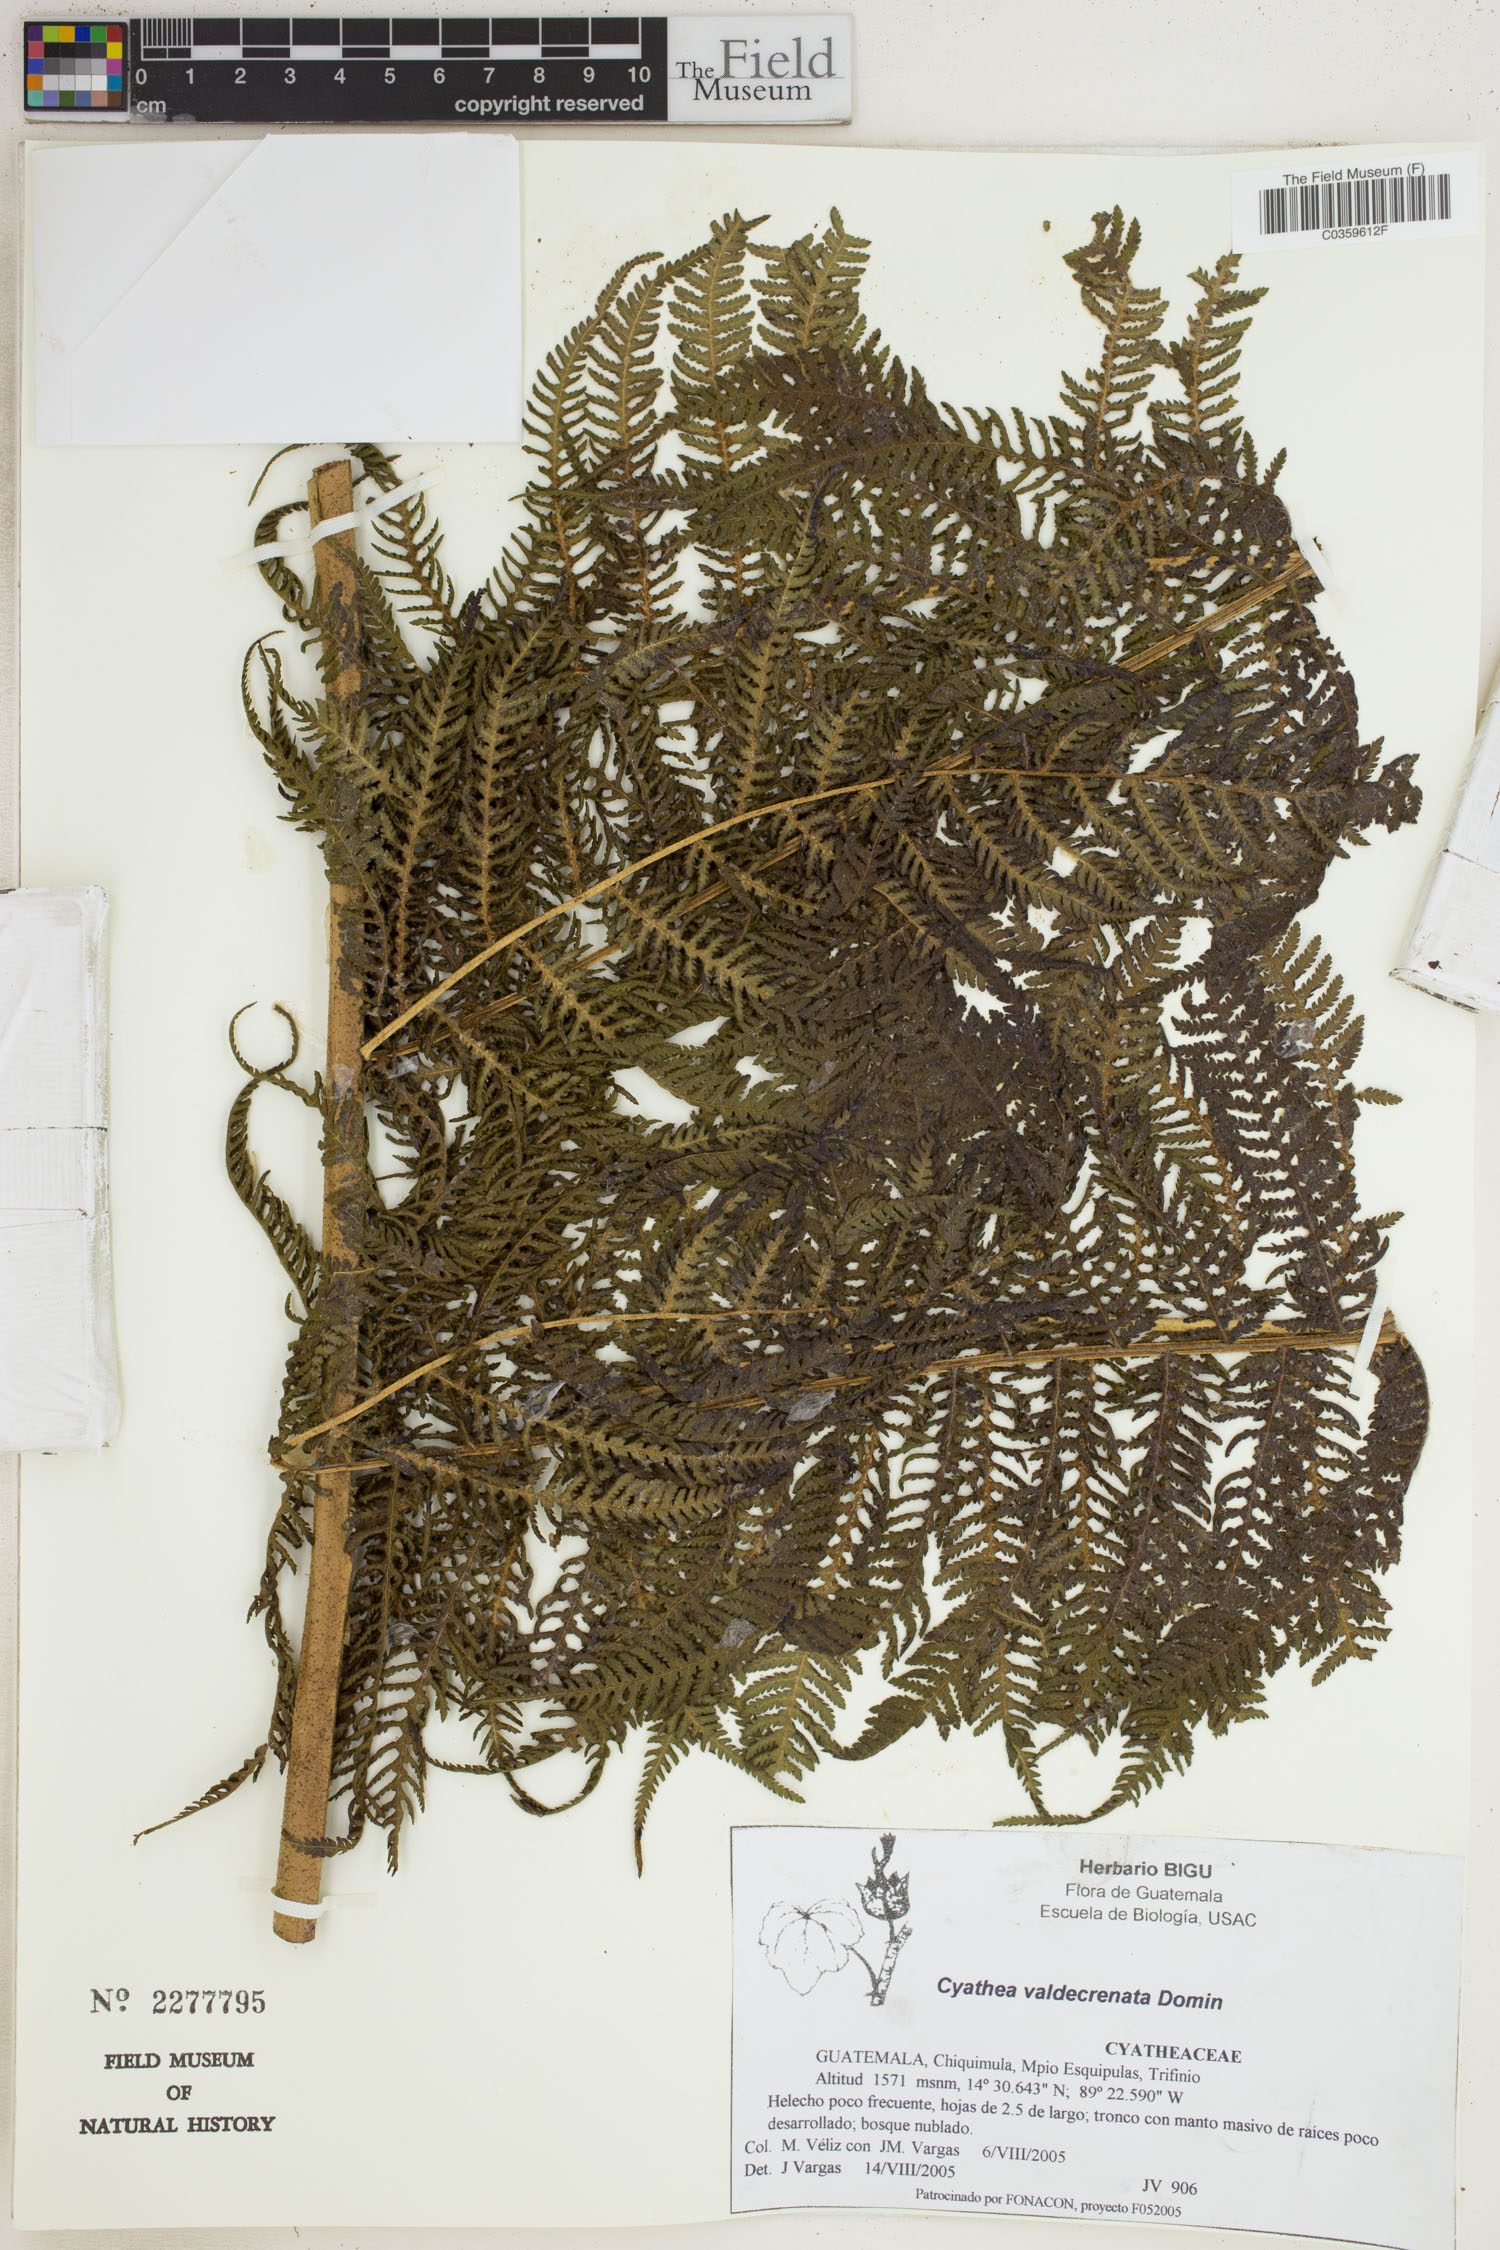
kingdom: Plantae
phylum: Tracheophyta
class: Polypodiopsida
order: Cyatheales
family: Cyatheaceae
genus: Cyathea
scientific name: Cyathea godmanii
